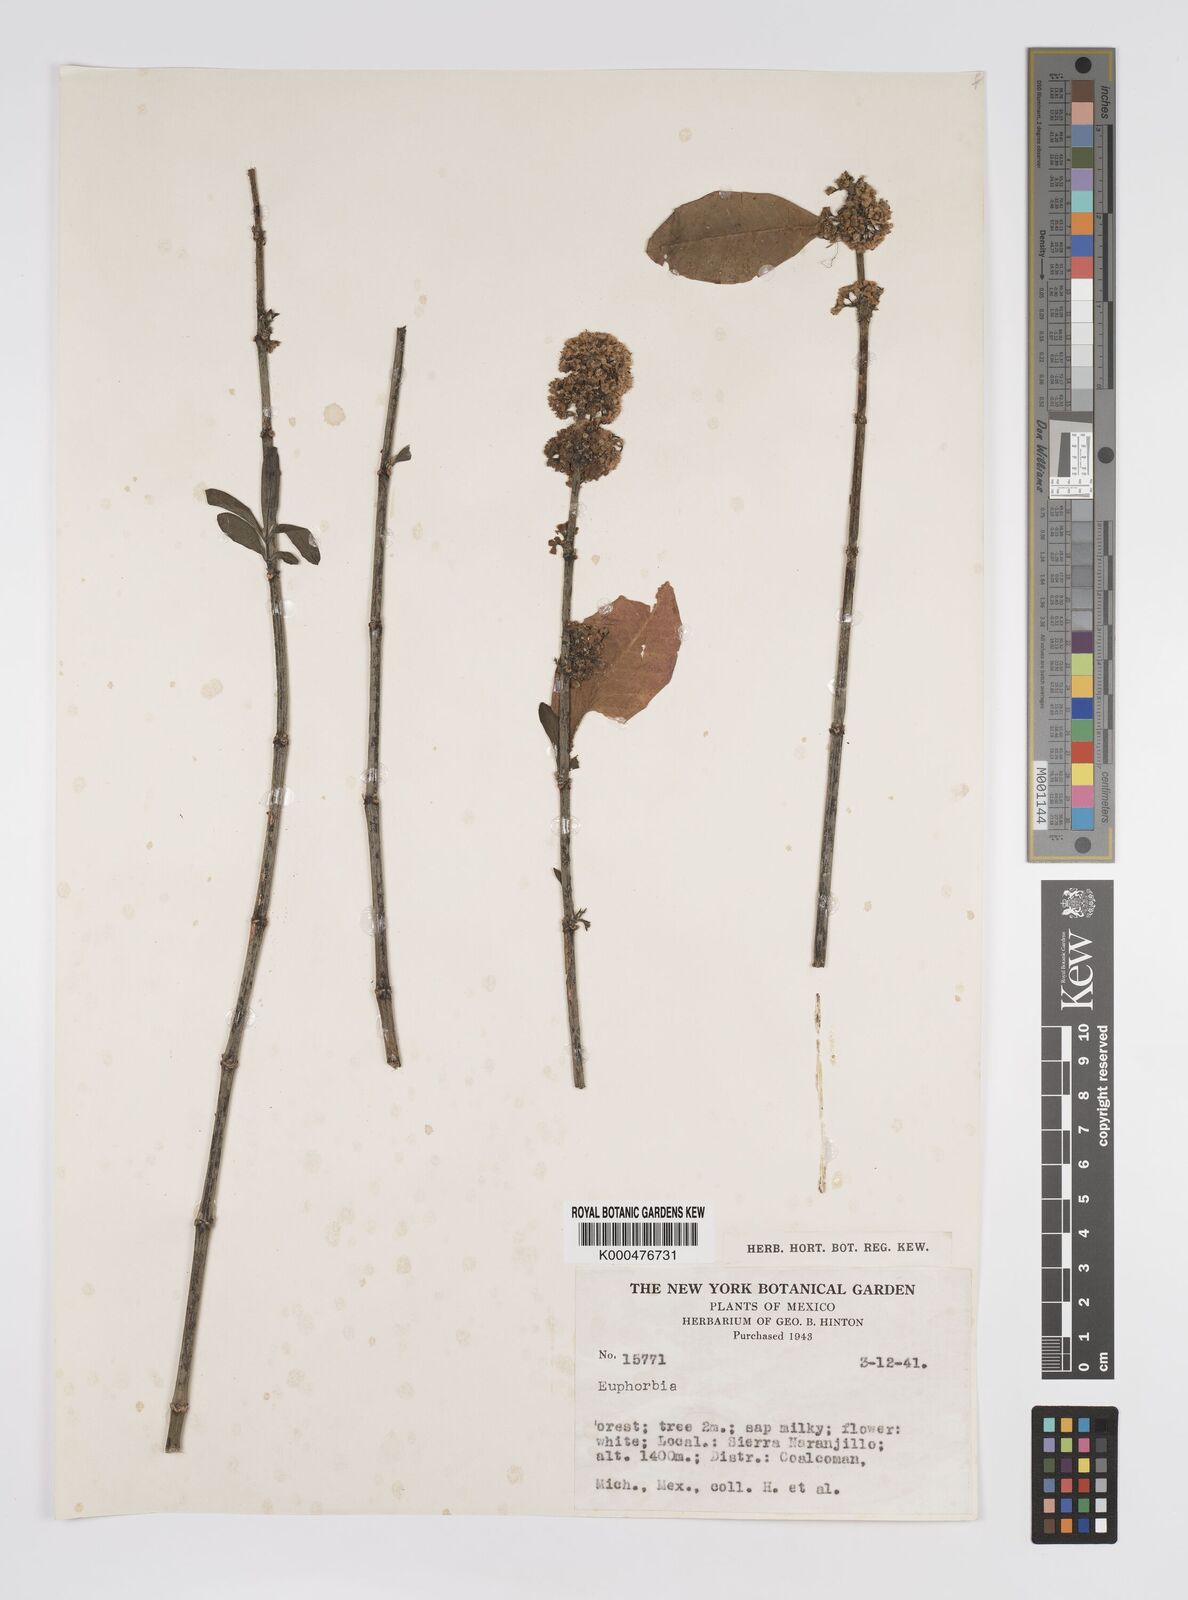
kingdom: Plantae
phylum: Tracheophyta
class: Magnoliopsida
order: Malpighiales
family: Euphorbiaceae
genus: Euphorbia
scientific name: Euphorbia
